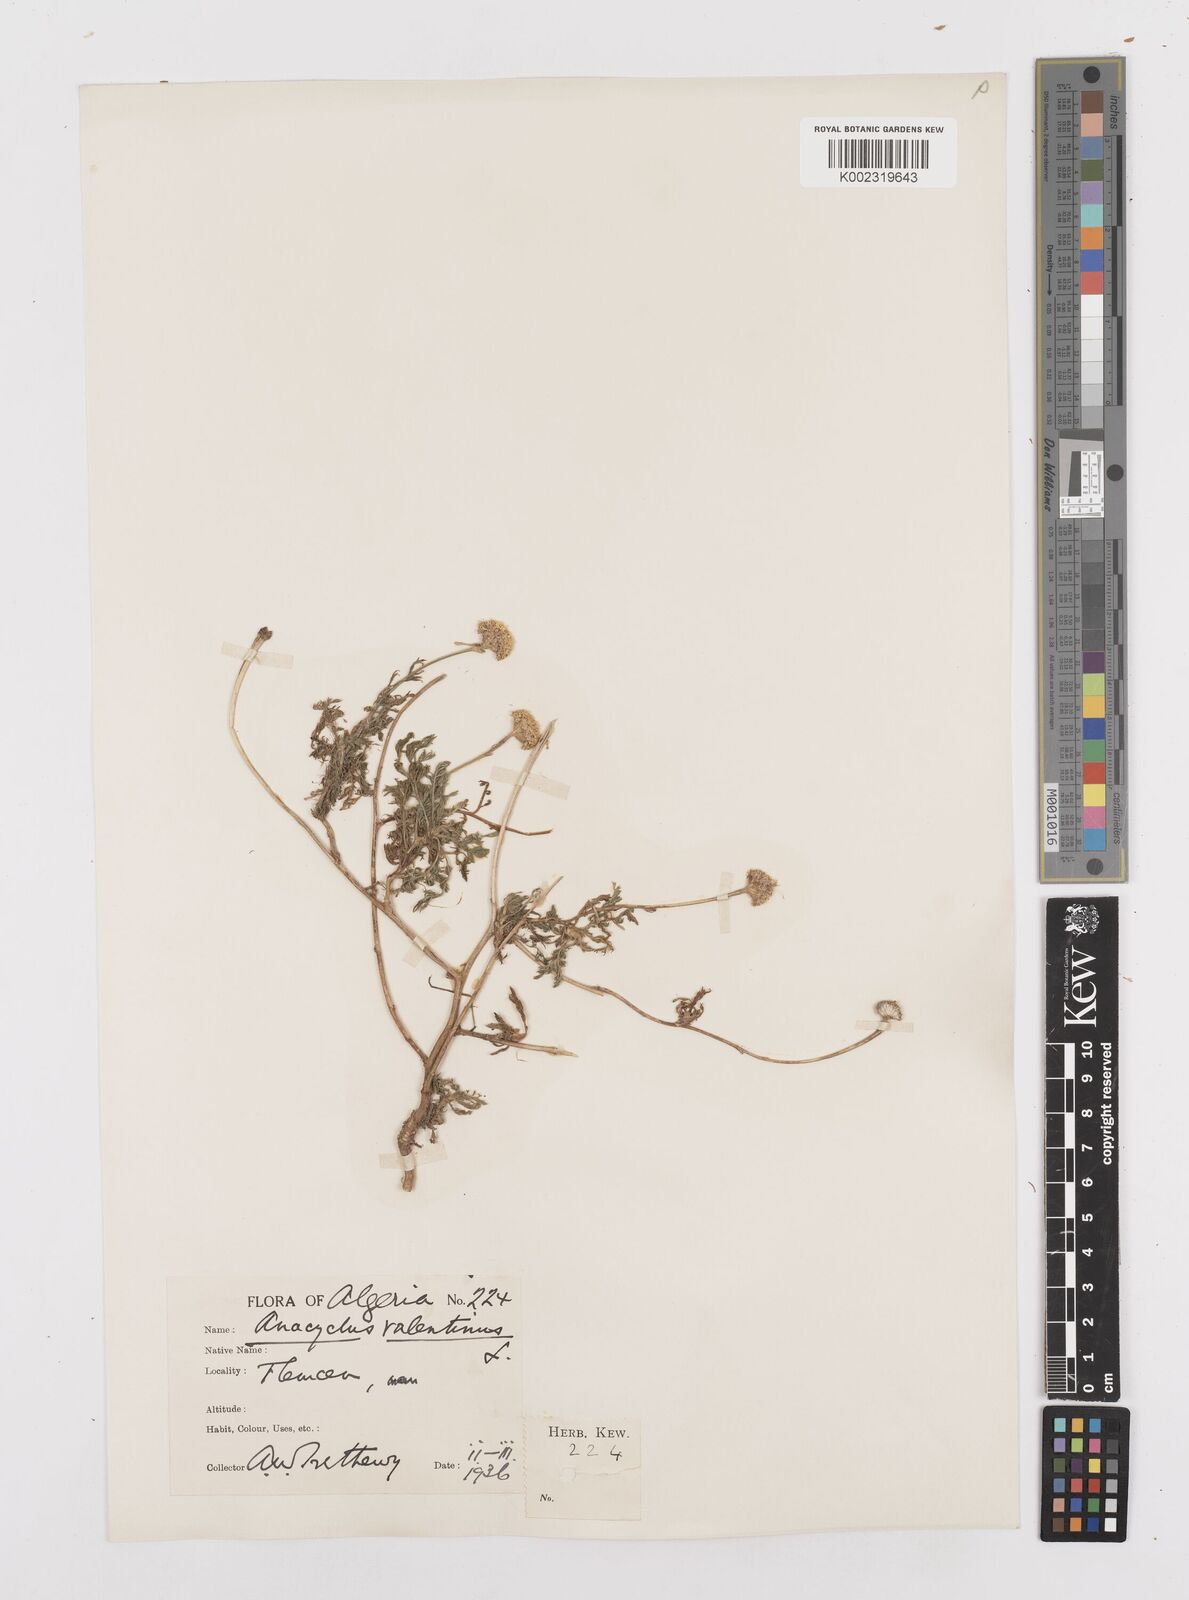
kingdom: Plantae
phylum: Tracheophyta
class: Magnoliopsida
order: Asterales
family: Asteraceae
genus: Anacyclus
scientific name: Anacyclus valentinus
